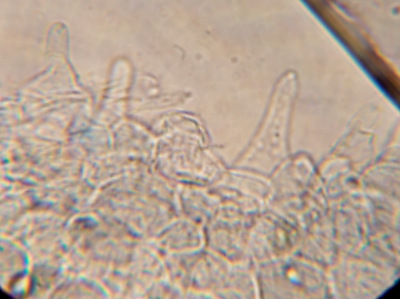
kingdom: Fungi
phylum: Basidiomycota
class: Agaricomycetes
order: Agaricales
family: Pluteaceae
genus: Pluteus
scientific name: Pluteus
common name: gråstokket skærmhat
